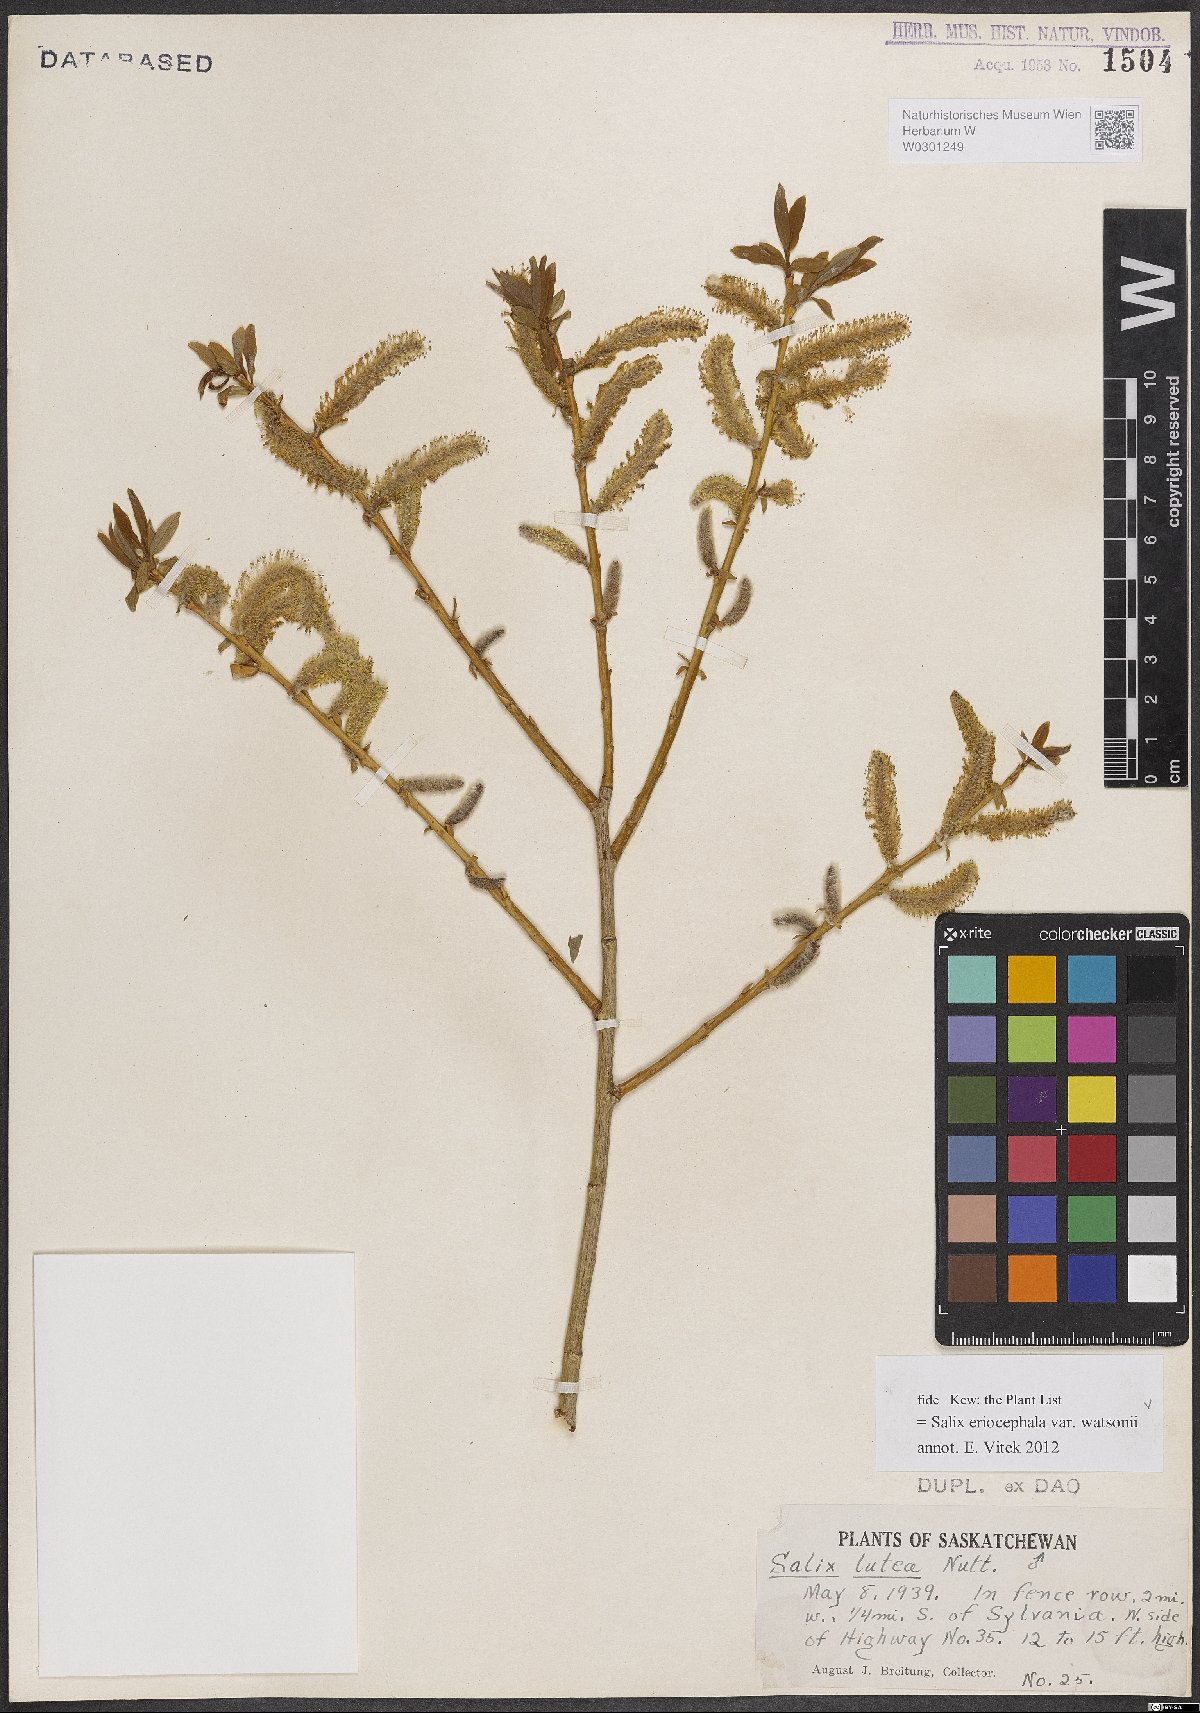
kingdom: Plantae
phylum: Tracheophyta
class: Magnoliopsida
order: Malpighiales
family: Salicaceae
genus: Salix
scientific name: Salix lutea
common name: Yellow willow
